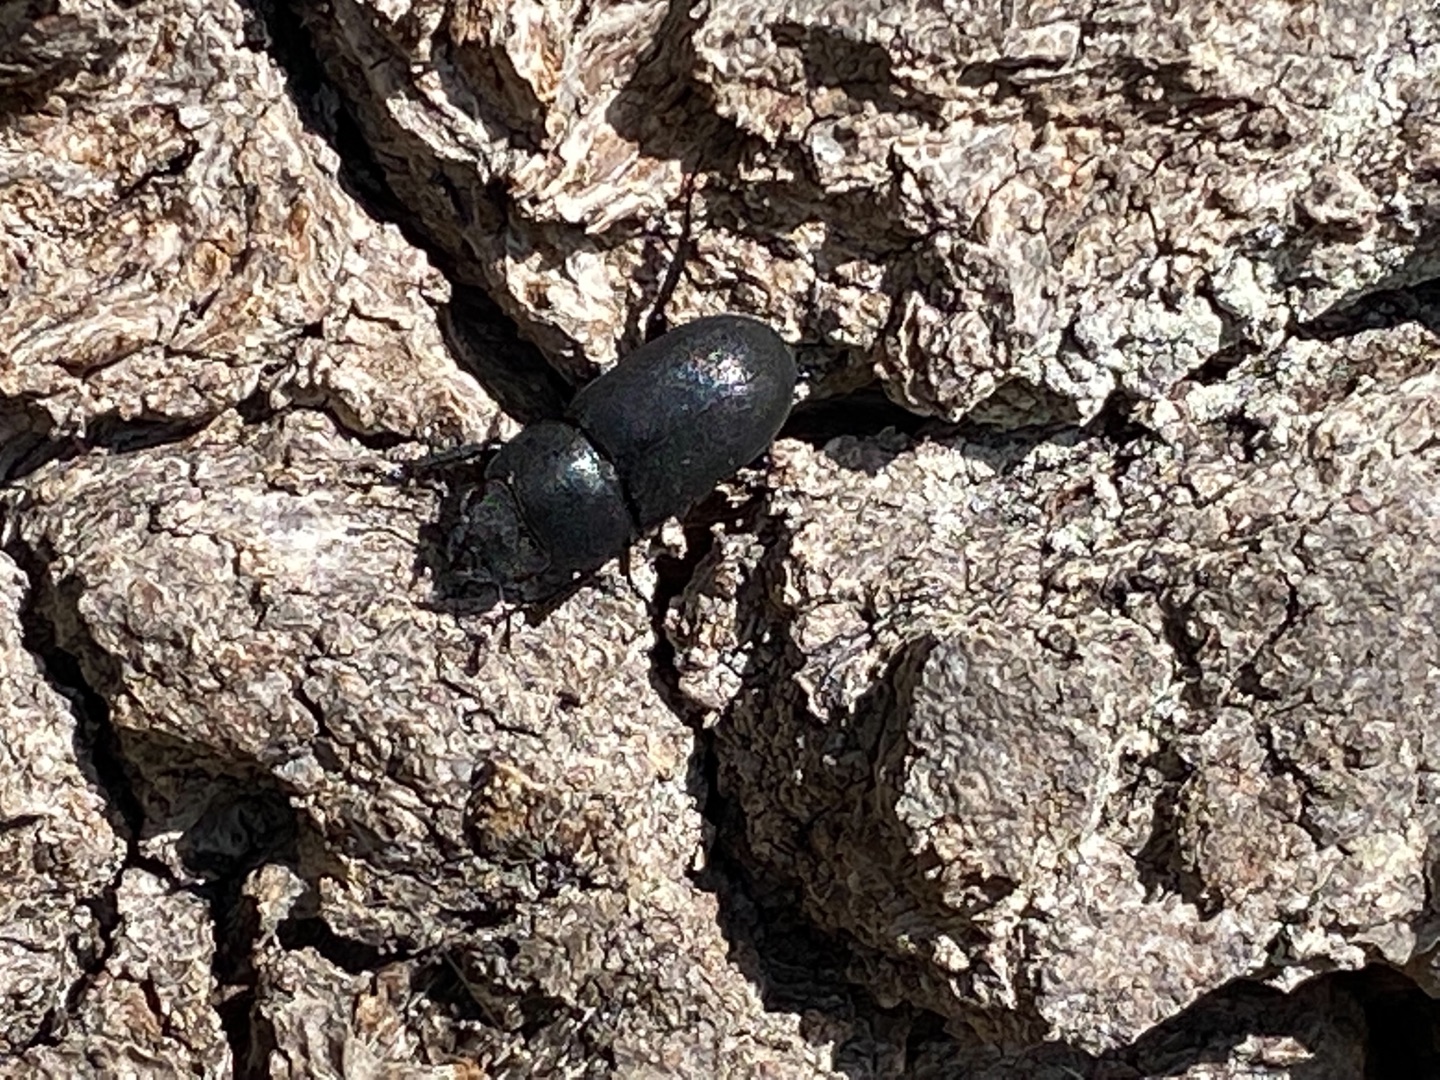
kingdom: Animalia
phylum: Arthropoda
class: Insecta
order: Coleoptera
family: Lucanidae
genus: Dorcus
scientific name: Dorcus parallelipipedus
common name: Bøghjort
